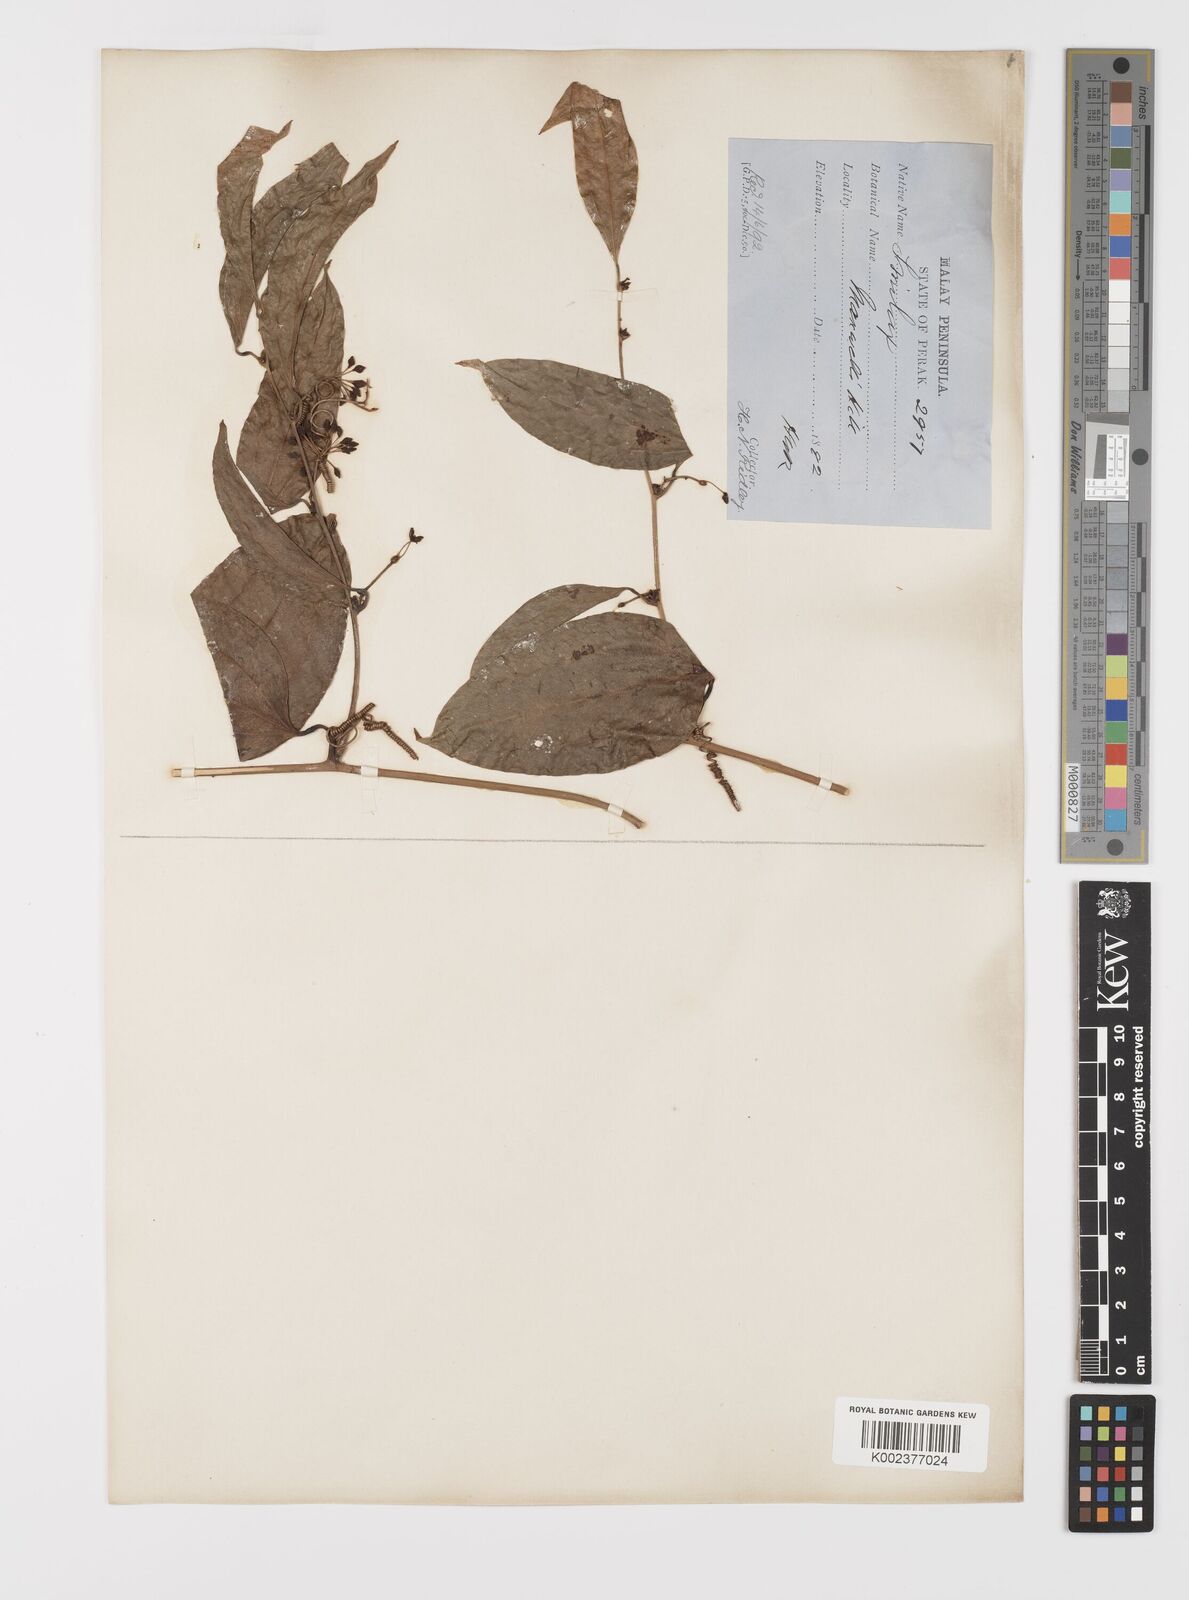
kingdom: Plantae
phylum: Tracheophyta
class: Liliopsida
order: Liliales
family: Smilacaceae
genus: Smilax
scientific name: Smilax laevis
